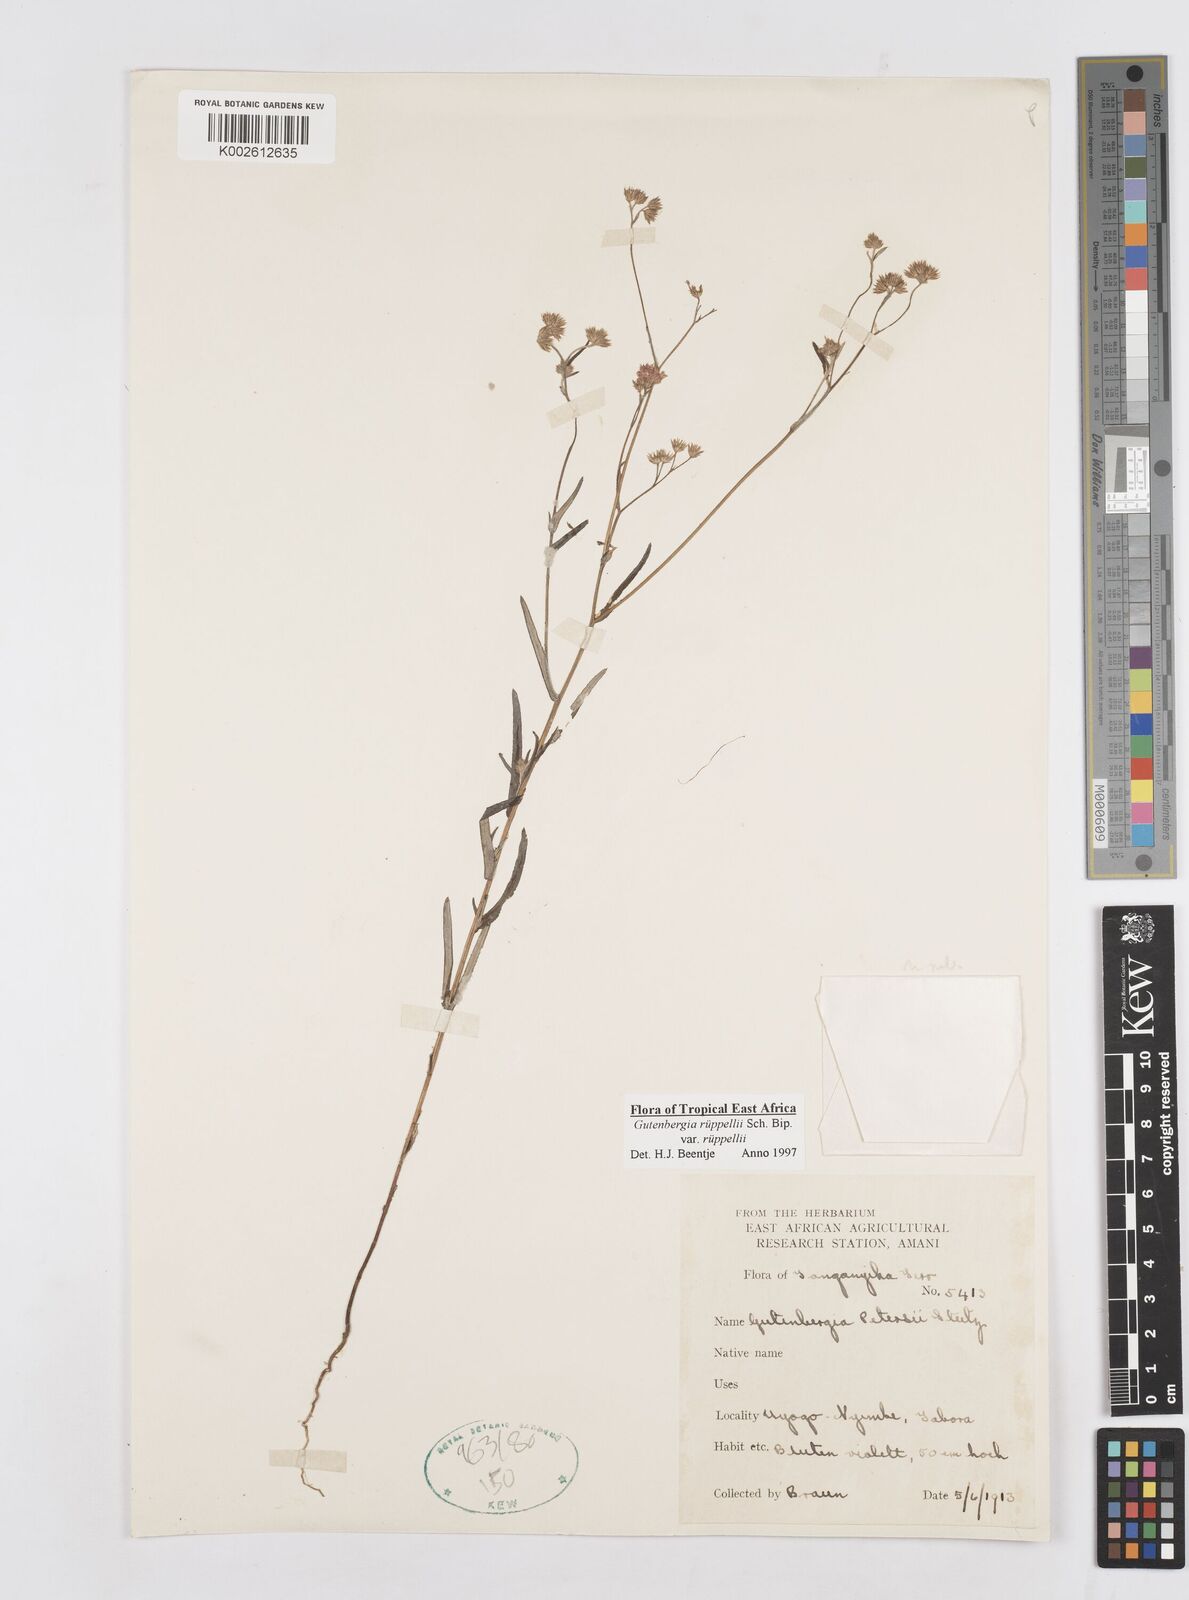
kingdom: Plantae
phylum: Tracheophyta
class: Magnoliopsida
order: Asterales
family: Asteraceae
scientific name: Asteraceae
